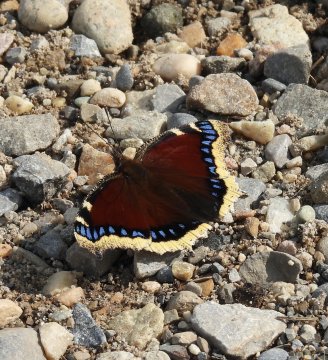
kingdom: Animalia
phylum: Arthropoda
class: Insecta
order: Lepidoptera
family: Nymphalidae
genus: Nymphalis
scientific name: Nymphalis antiopa
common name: Mourning Cloak
